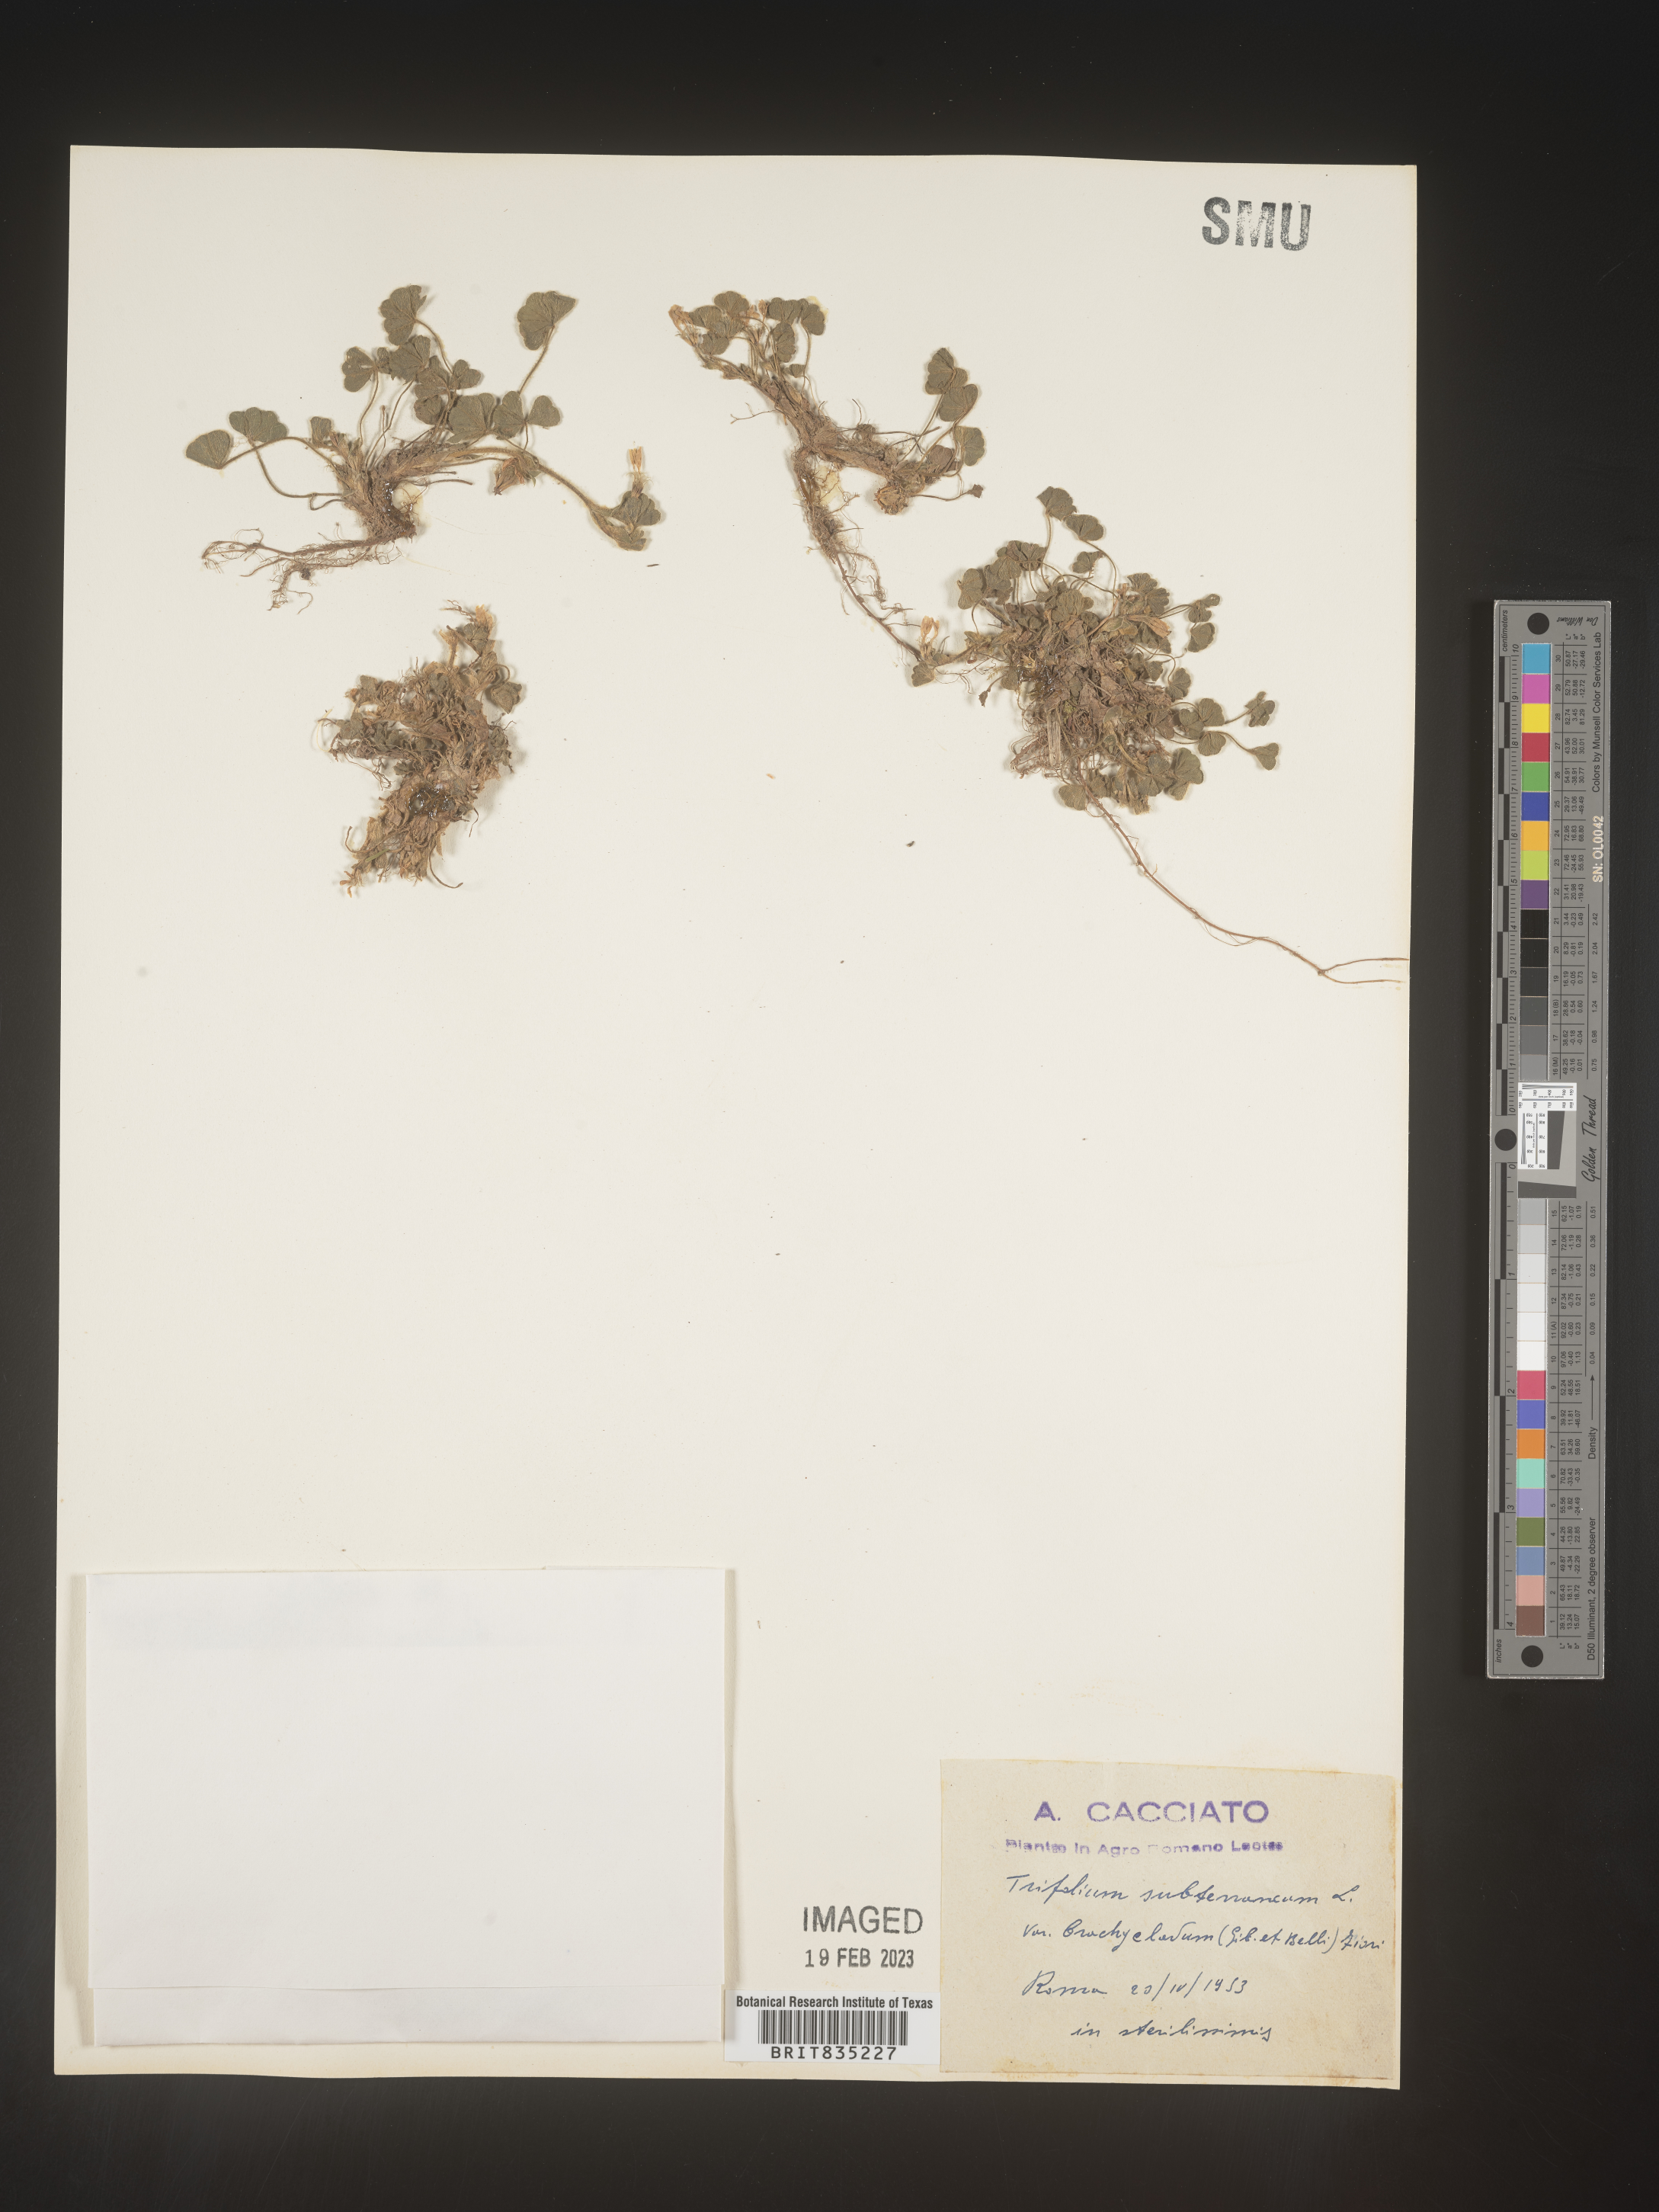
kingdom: Plantae
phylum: Tracheophyta
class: Magnoliopsida
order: Fabales
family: Fabaceae
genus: Trifolium
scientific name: Trifolium
